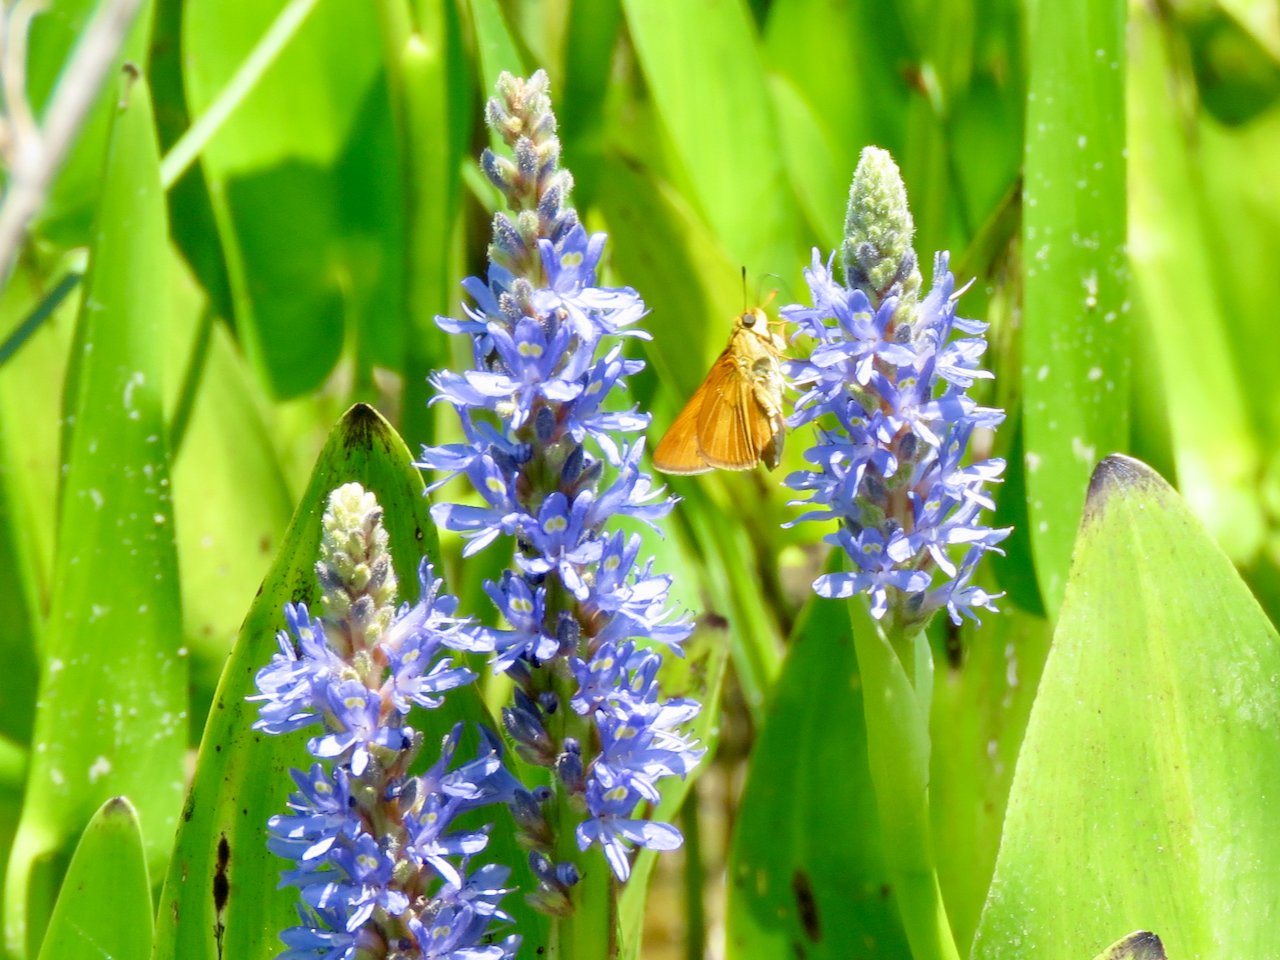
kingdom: Animalia
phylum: Arthropoda
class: Insecta
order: Lepidoptera
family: Hesperiidae
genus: Euphyes
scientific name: Euphyes dion
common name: Dion Skipper
